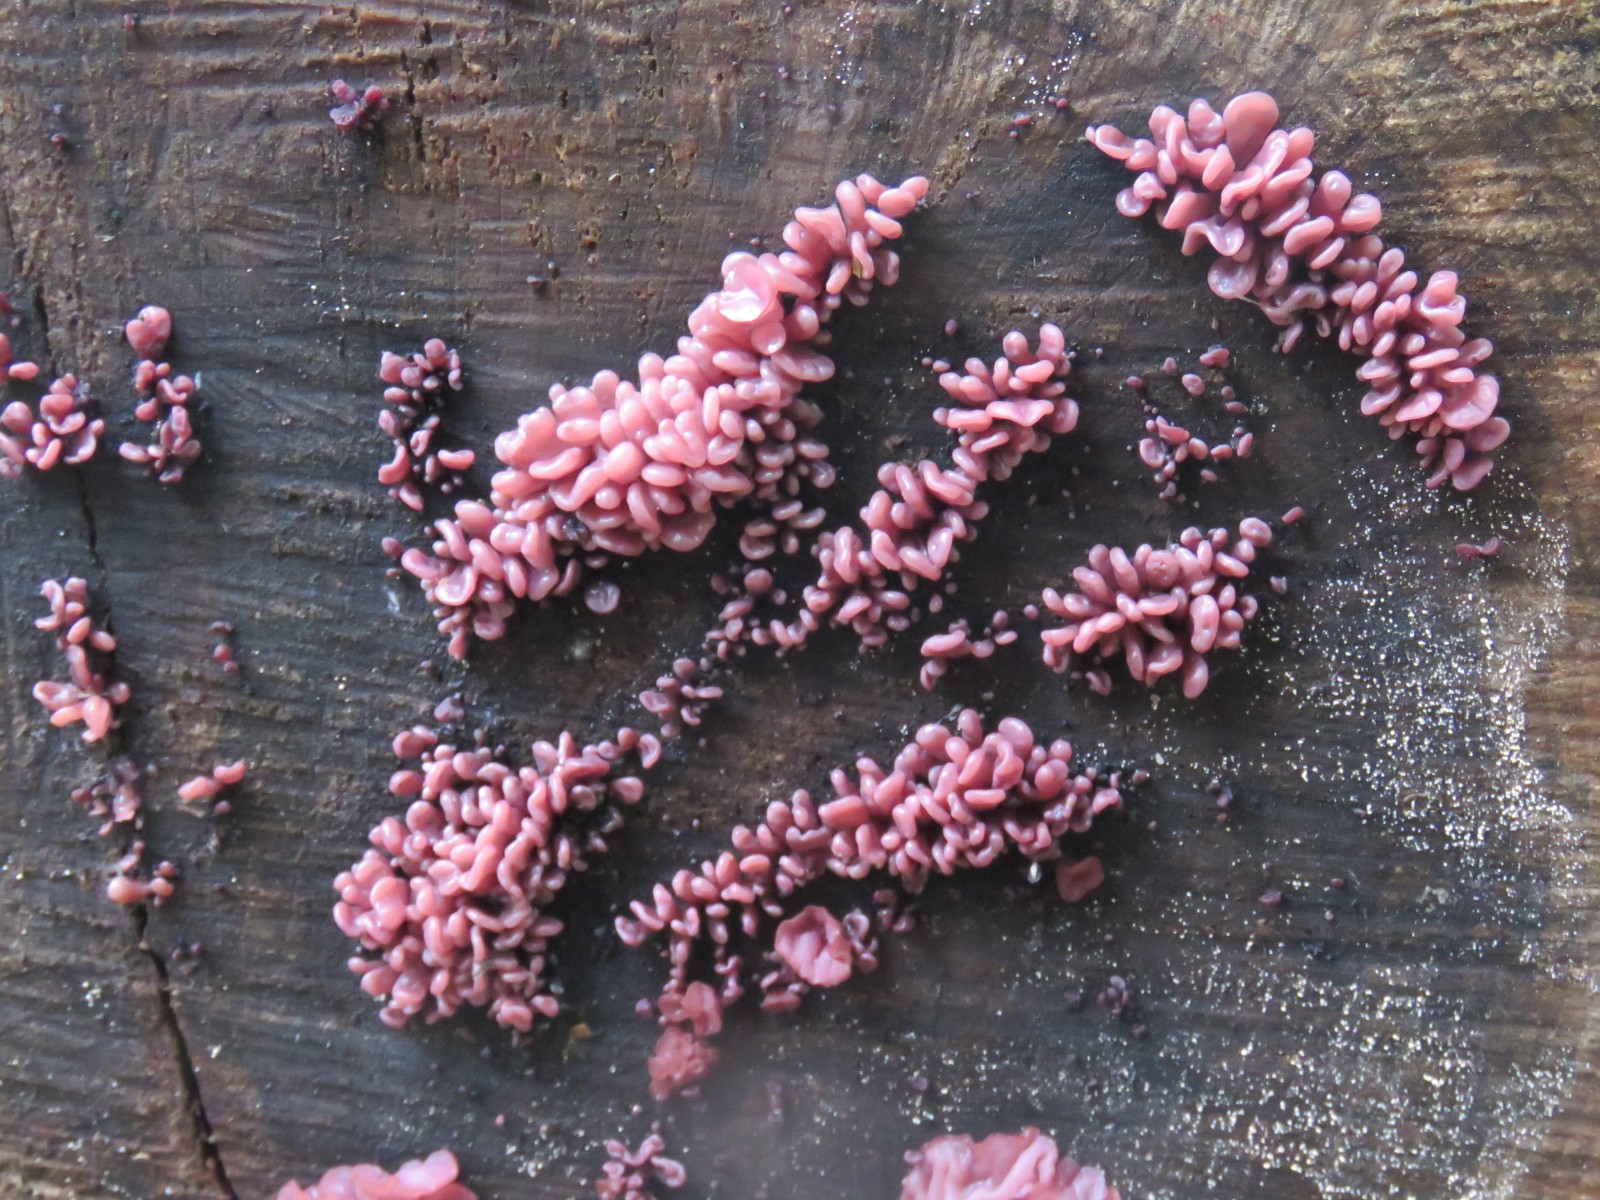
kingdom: Fungi
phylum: Ascomycota
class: Leotiomycetes
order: Helotiales
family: Gelatinodiscaceae
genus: Ascocoryne
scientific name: Ascocoryne sarcoides
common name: rødlilla sejskive
